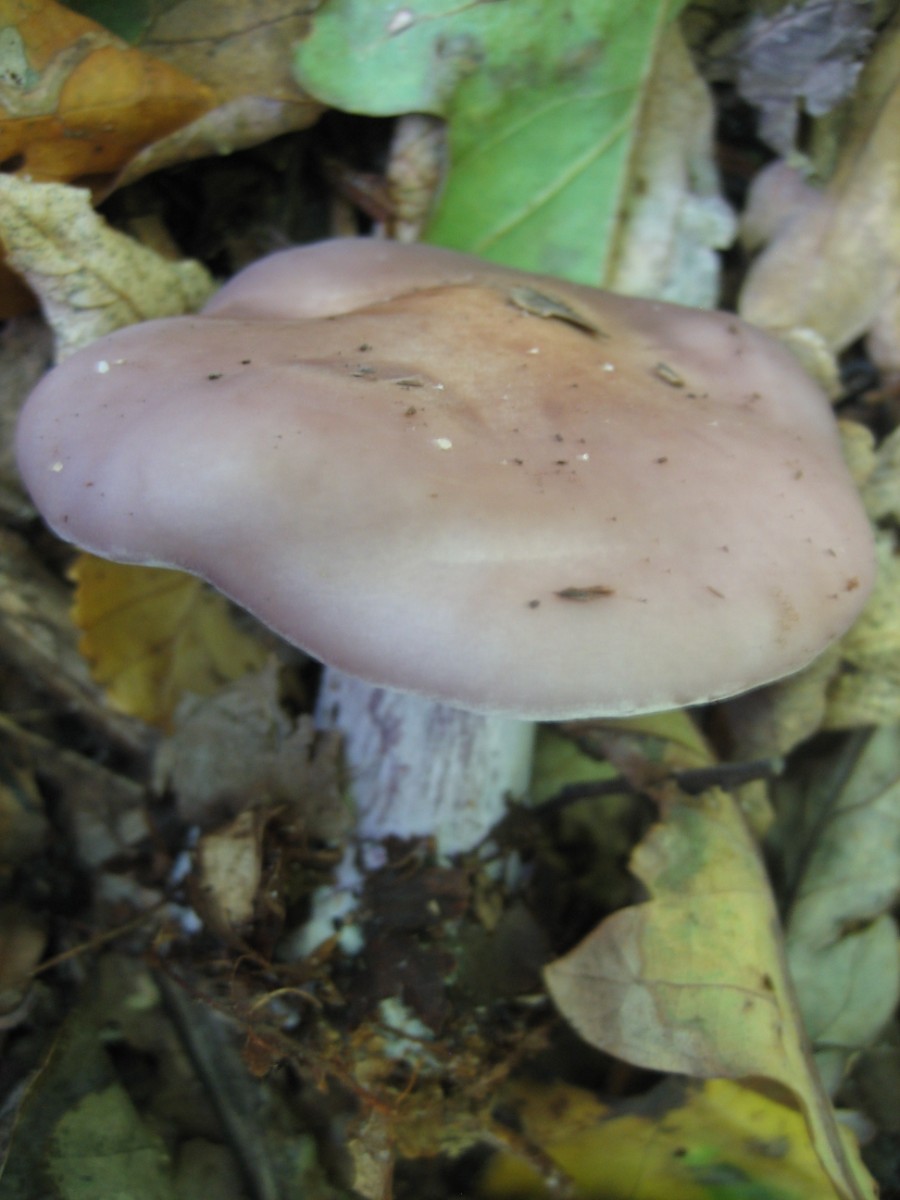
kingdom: Fungi
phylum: Basidiomycota
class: Agaricomycetes
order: Agaricales
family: Tricholomataceae
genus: Lepista
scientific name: Lepista nuda
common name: violet hekseringshat
